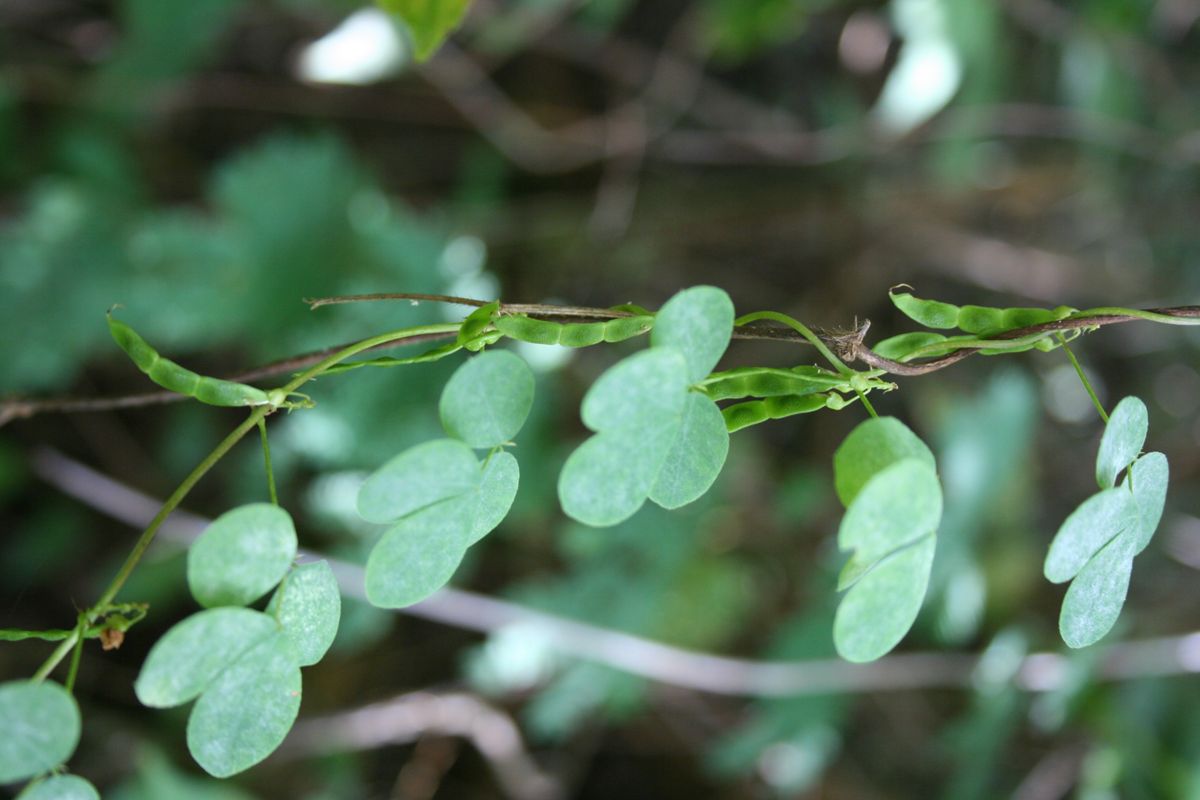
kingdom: Plantae
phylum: Tracheophyta
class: Magnoliopsida
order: Fabales
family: Fabaceae
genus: Poiretia
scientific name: Poiretia punctata
